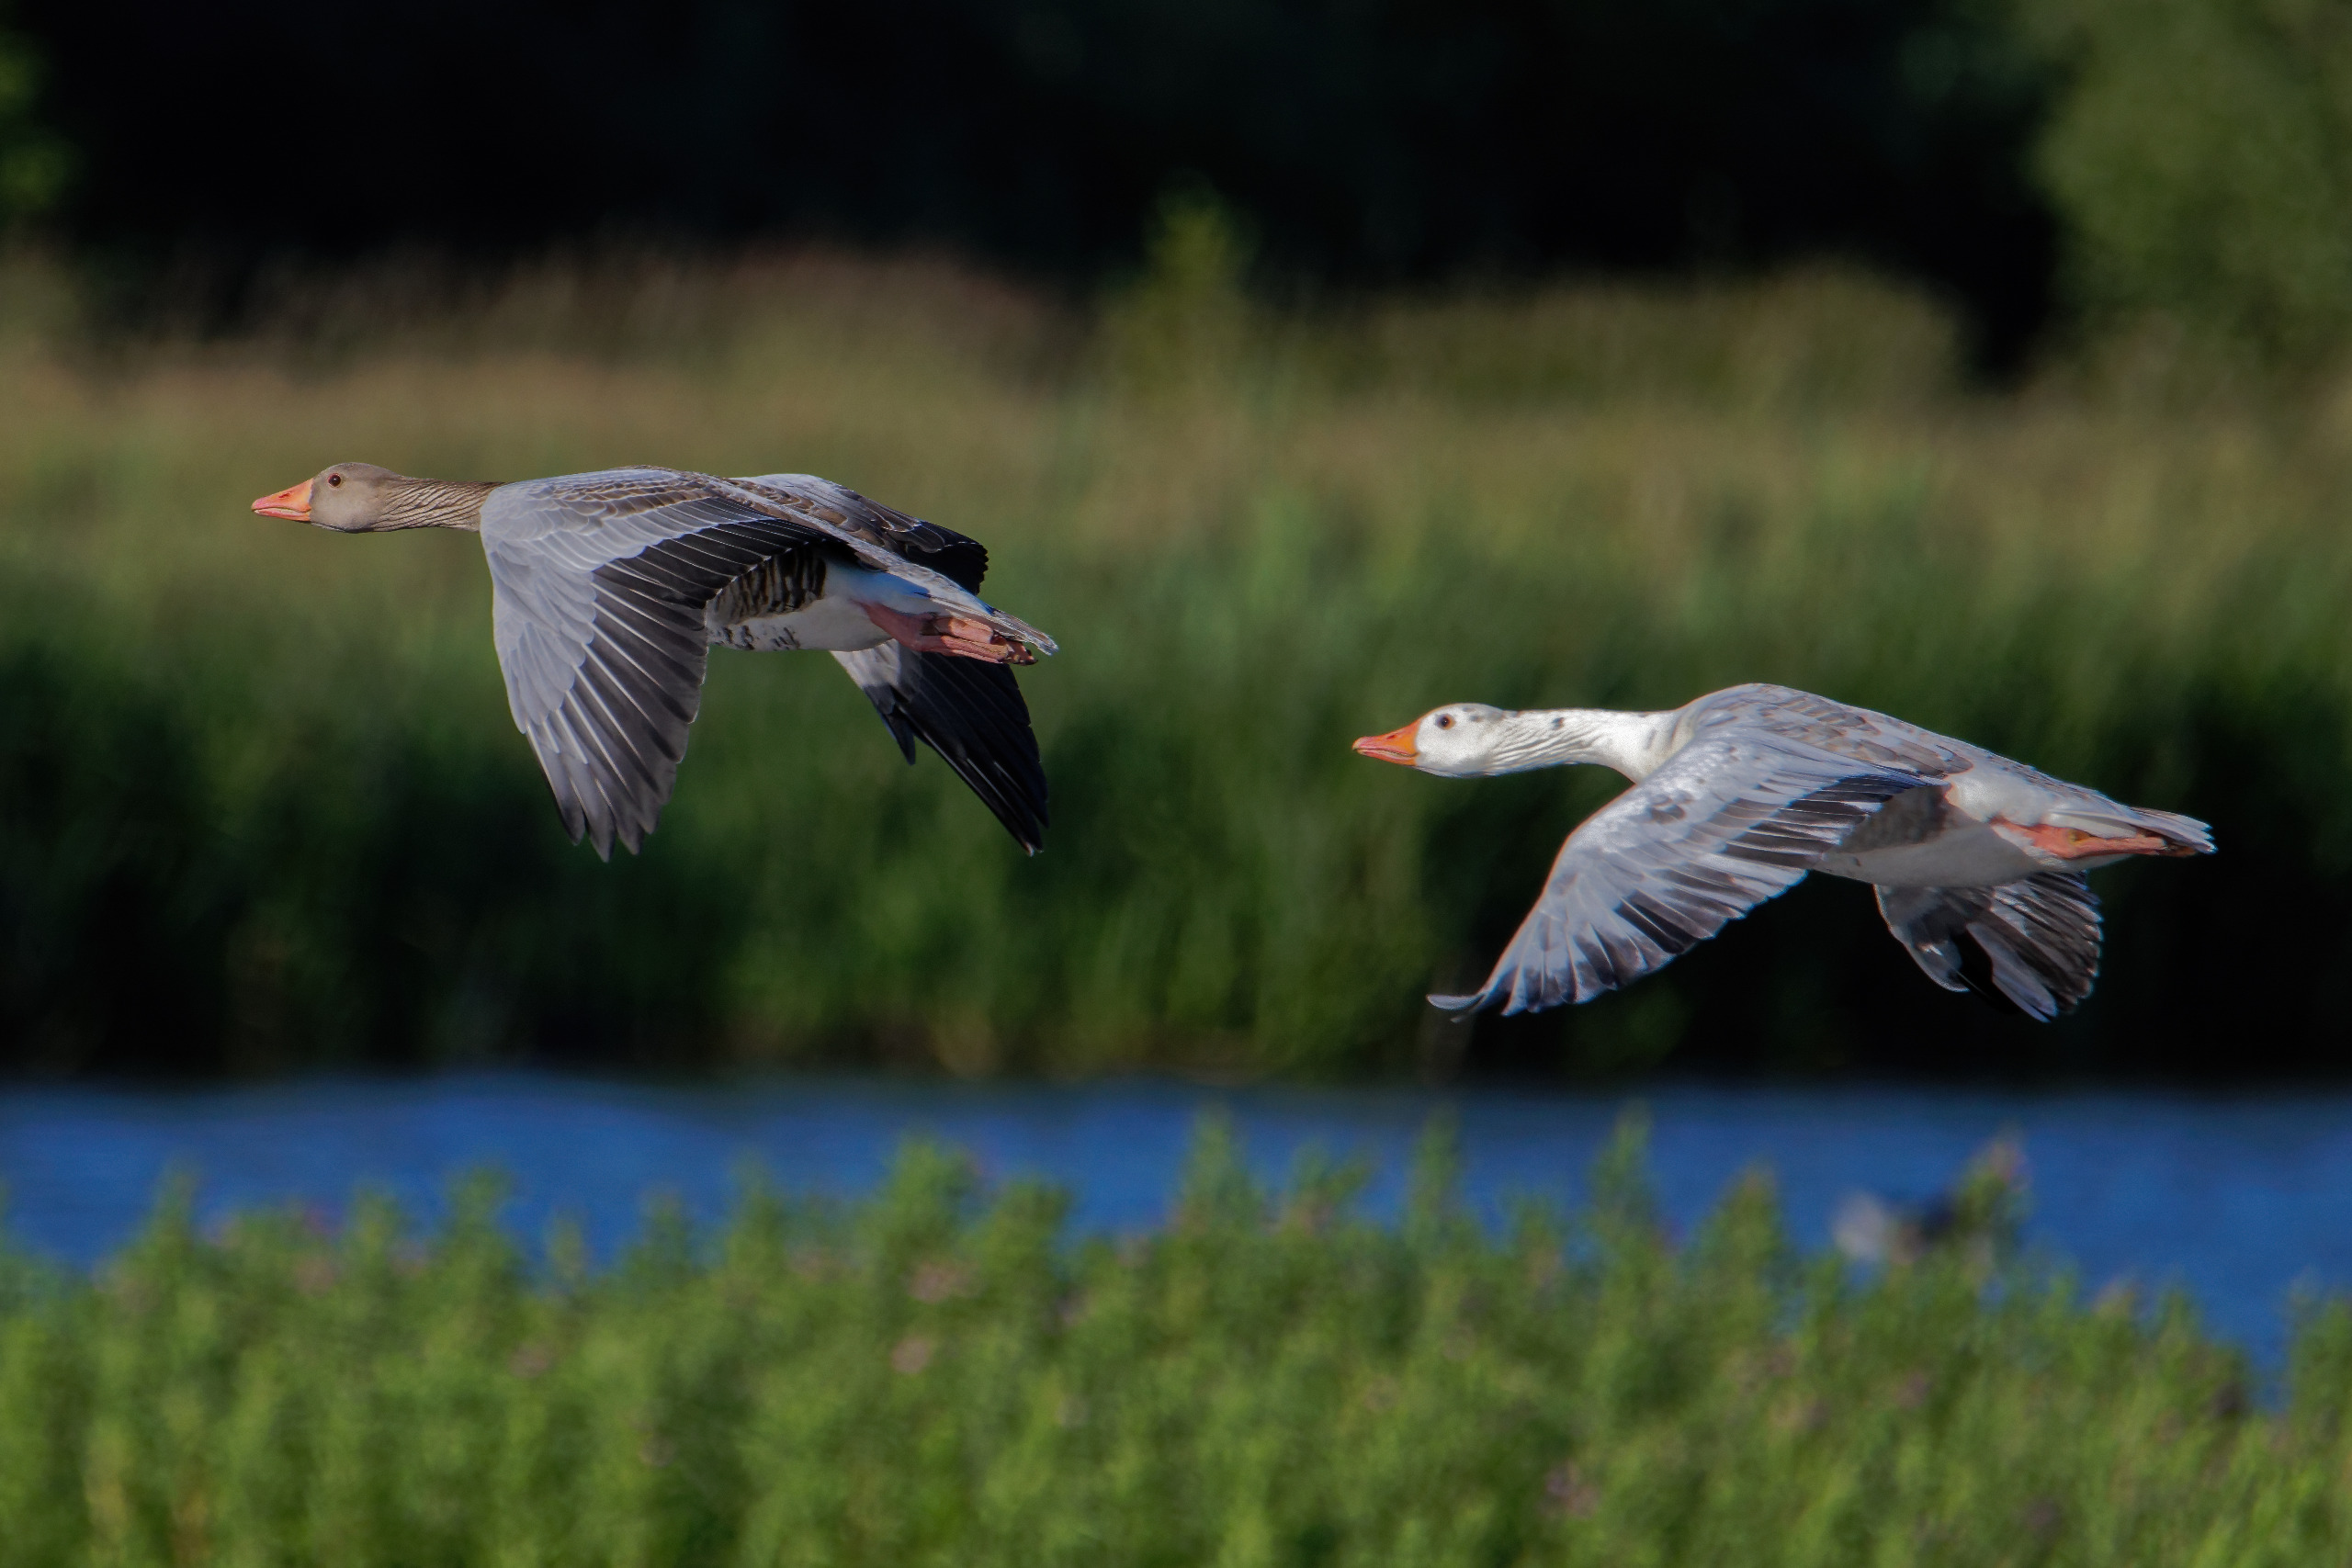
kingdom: Animalia
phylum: Chordata
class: Aves
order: Anseriformes
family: Anatidae
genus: Anser
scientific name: Anser anser
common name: Grågås
